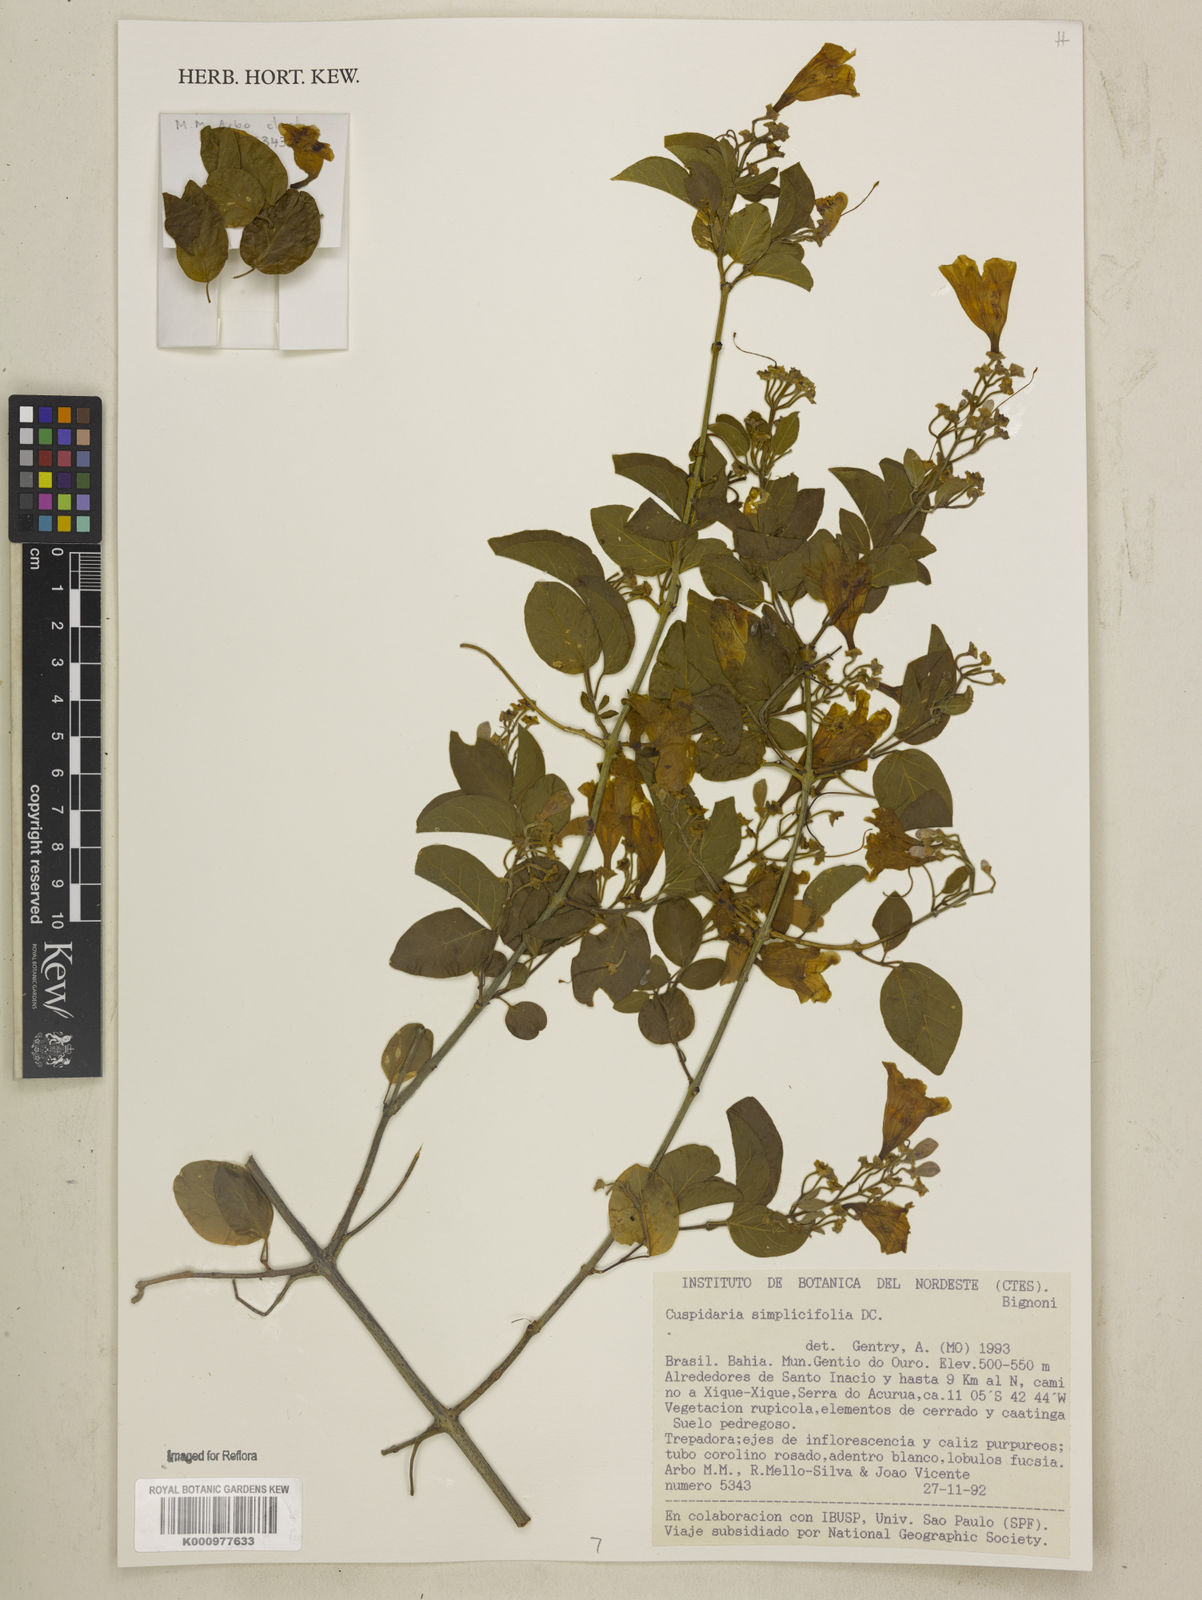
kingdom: Plantae
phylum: Tracheophyta
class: Magnoliopsida
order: Lamiales
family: Bignoniaceae
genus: Cuspidaria
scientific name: Cuspidaria simplicifolia
